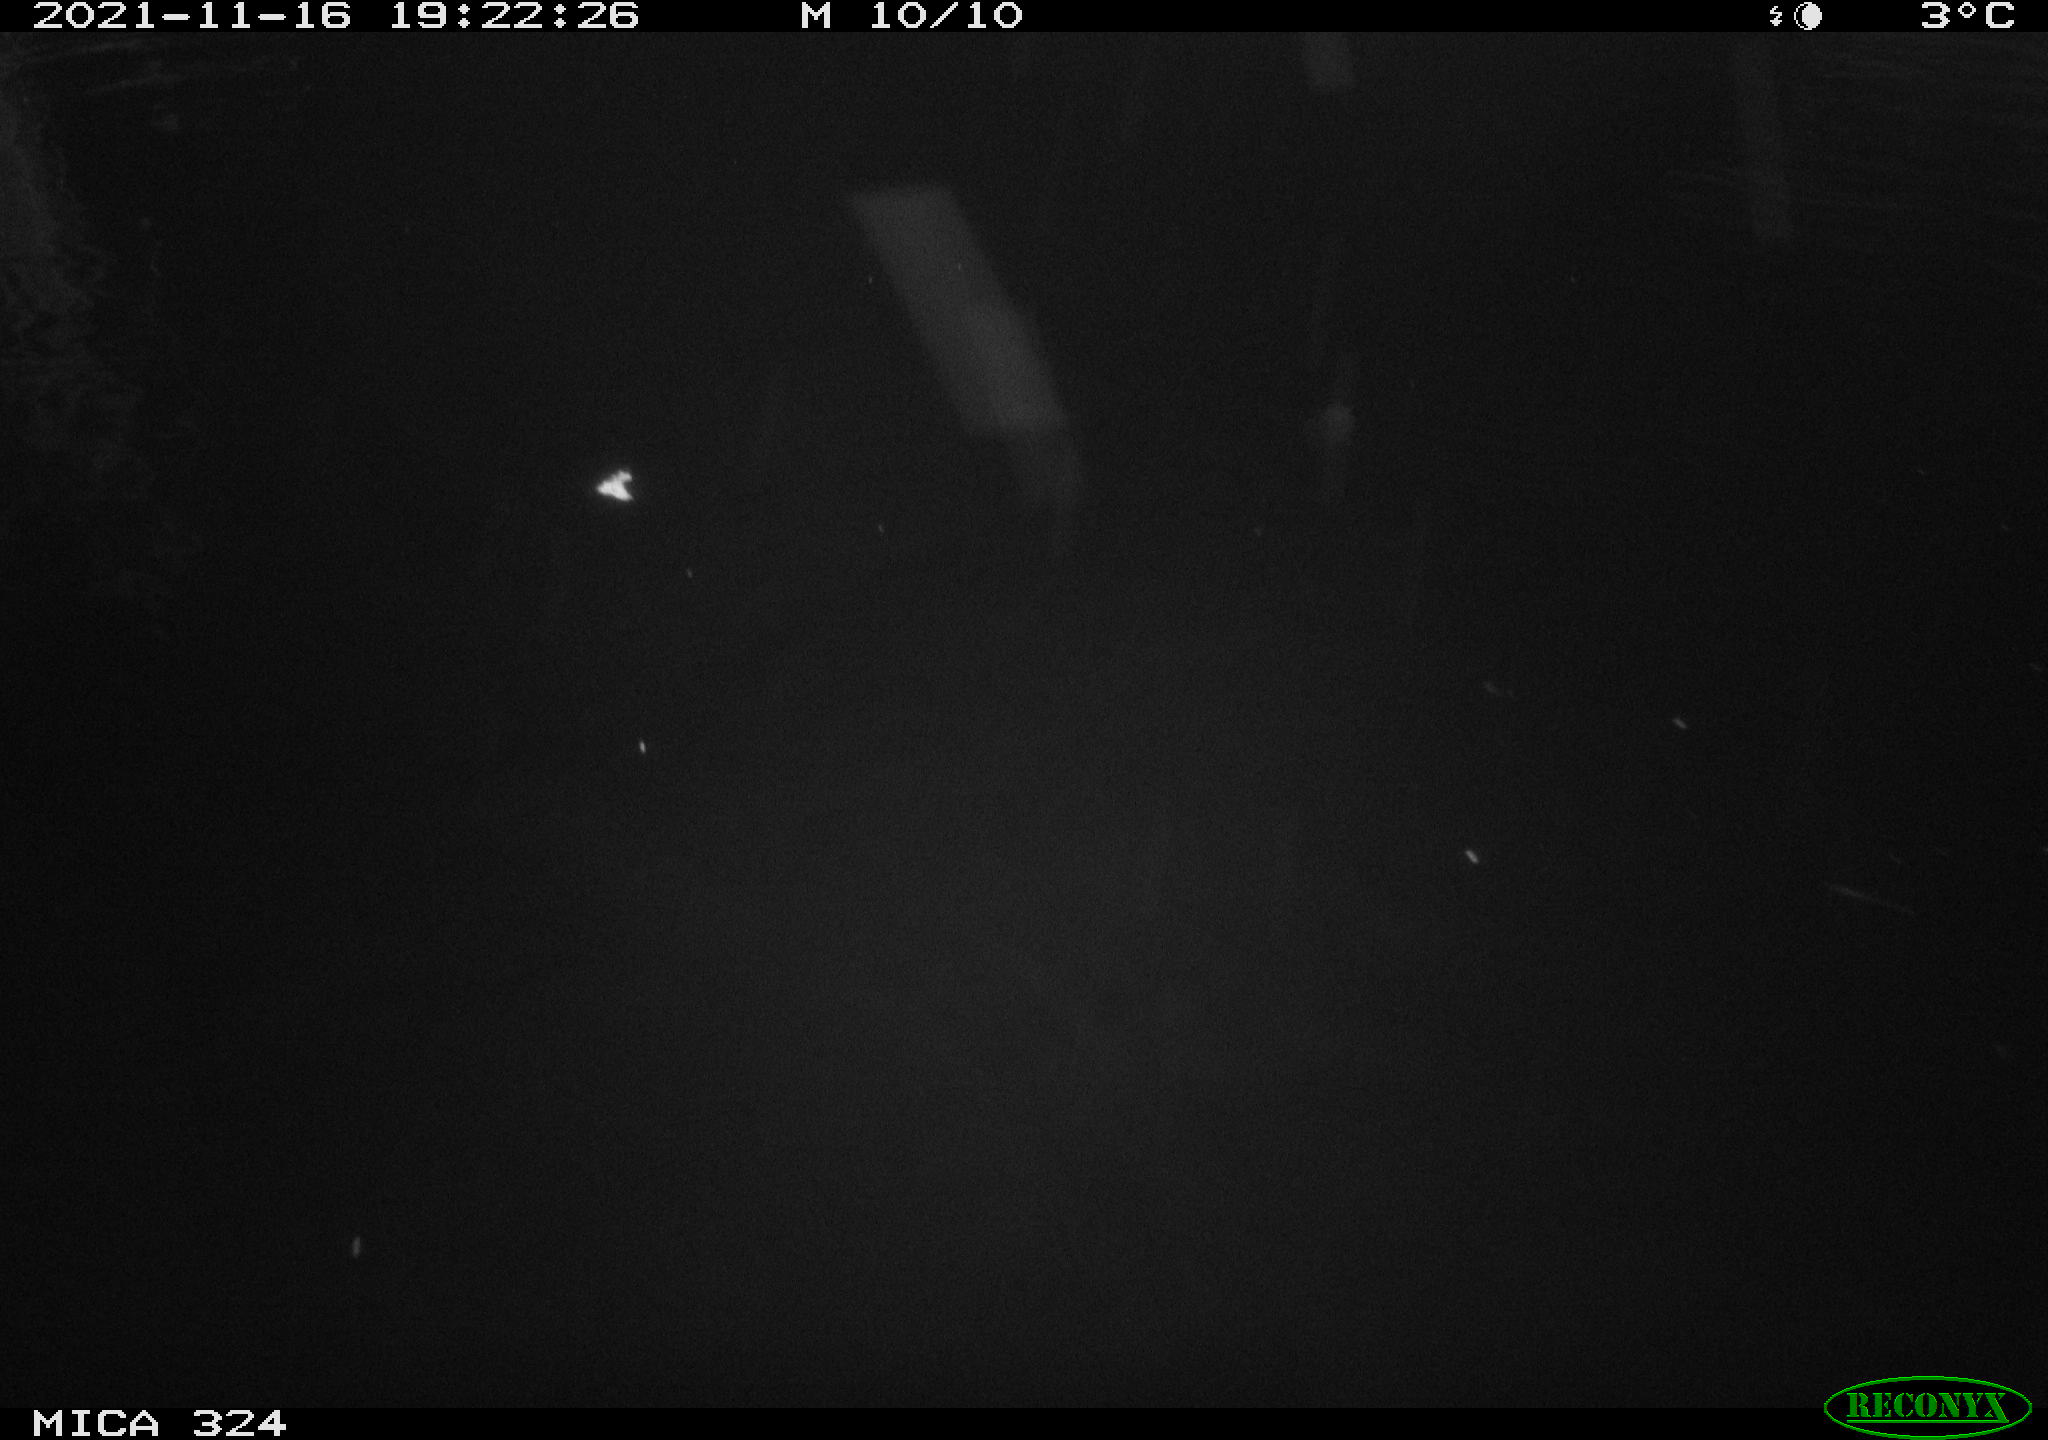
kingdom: Animalia
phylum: Chordata
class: Mammalia
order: Rodentia
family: Cricetidae
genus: Ondatra
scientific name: Ondatra zibethicus
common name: Muskrat
